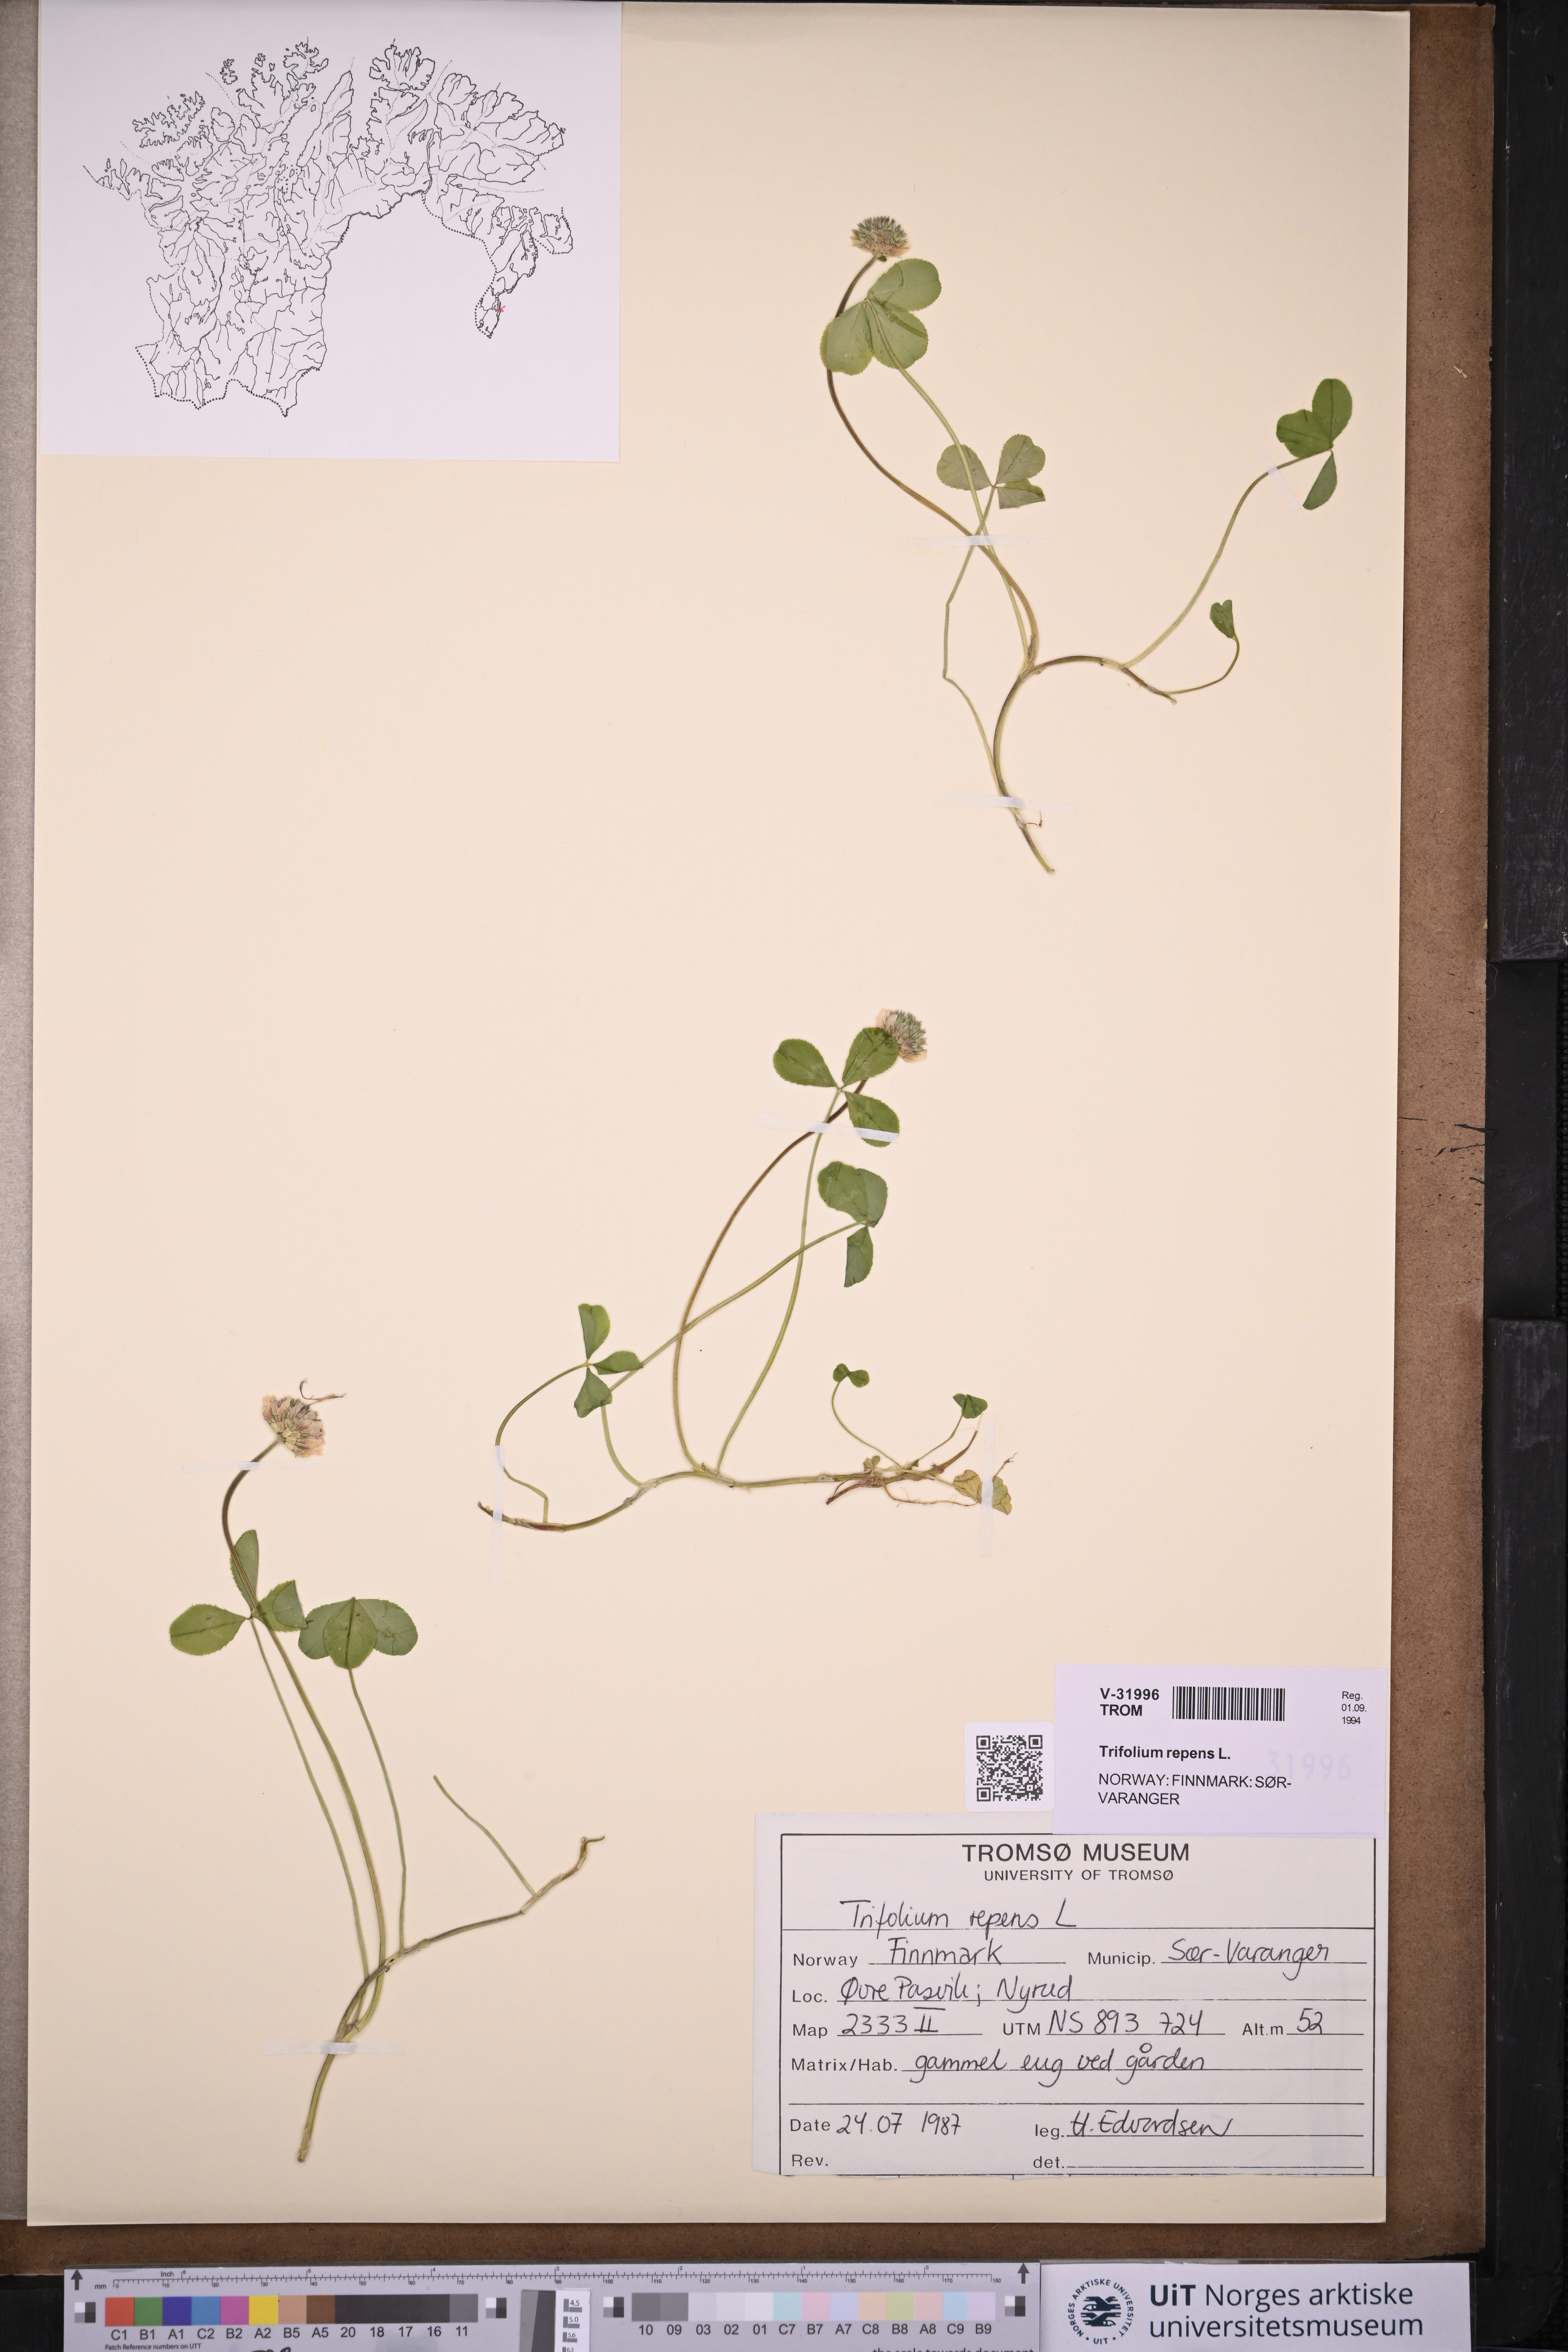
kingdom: Plantae
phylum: Tracheophyta
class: Magnoliopsida
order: Fabales
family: Fabaceae
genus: Trifolium
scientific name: Trifolium repens
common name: White clover
